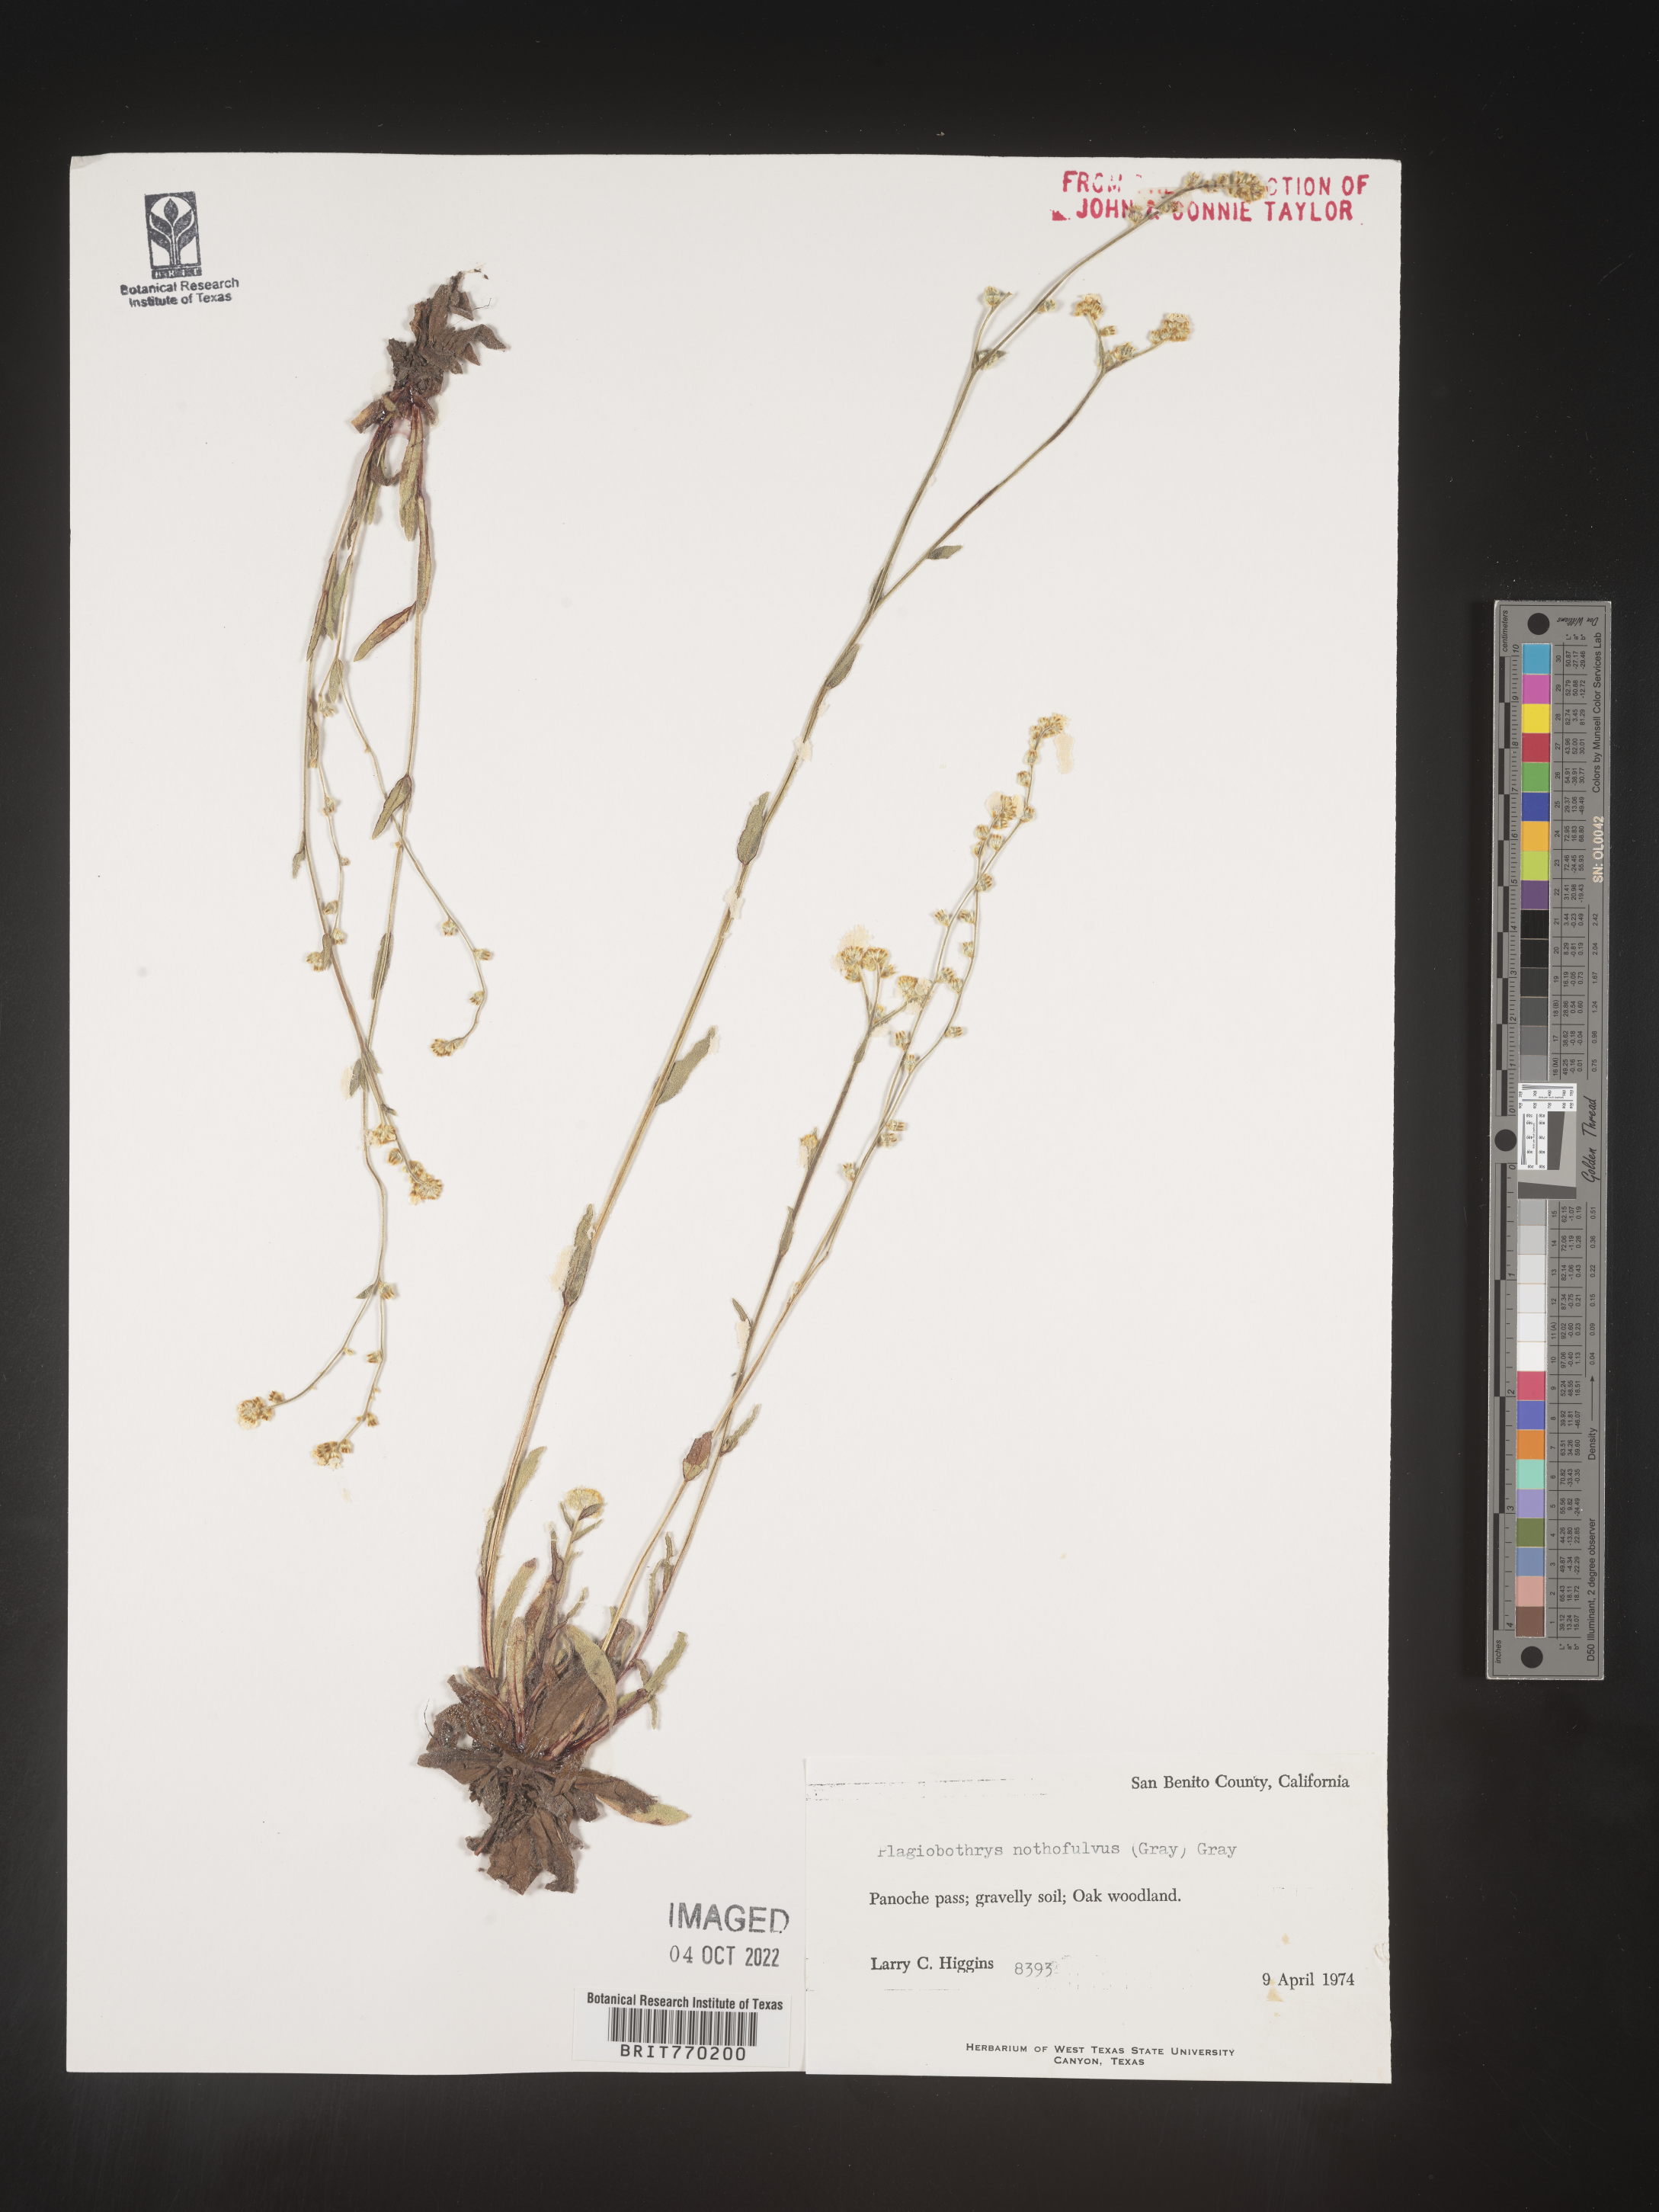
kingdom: Plantae
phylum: Tracheophyta
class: Magnoliopsida
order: Boraginales
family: Boraginaceae
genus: Plagiobothrys
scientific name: Plagiobothrys
